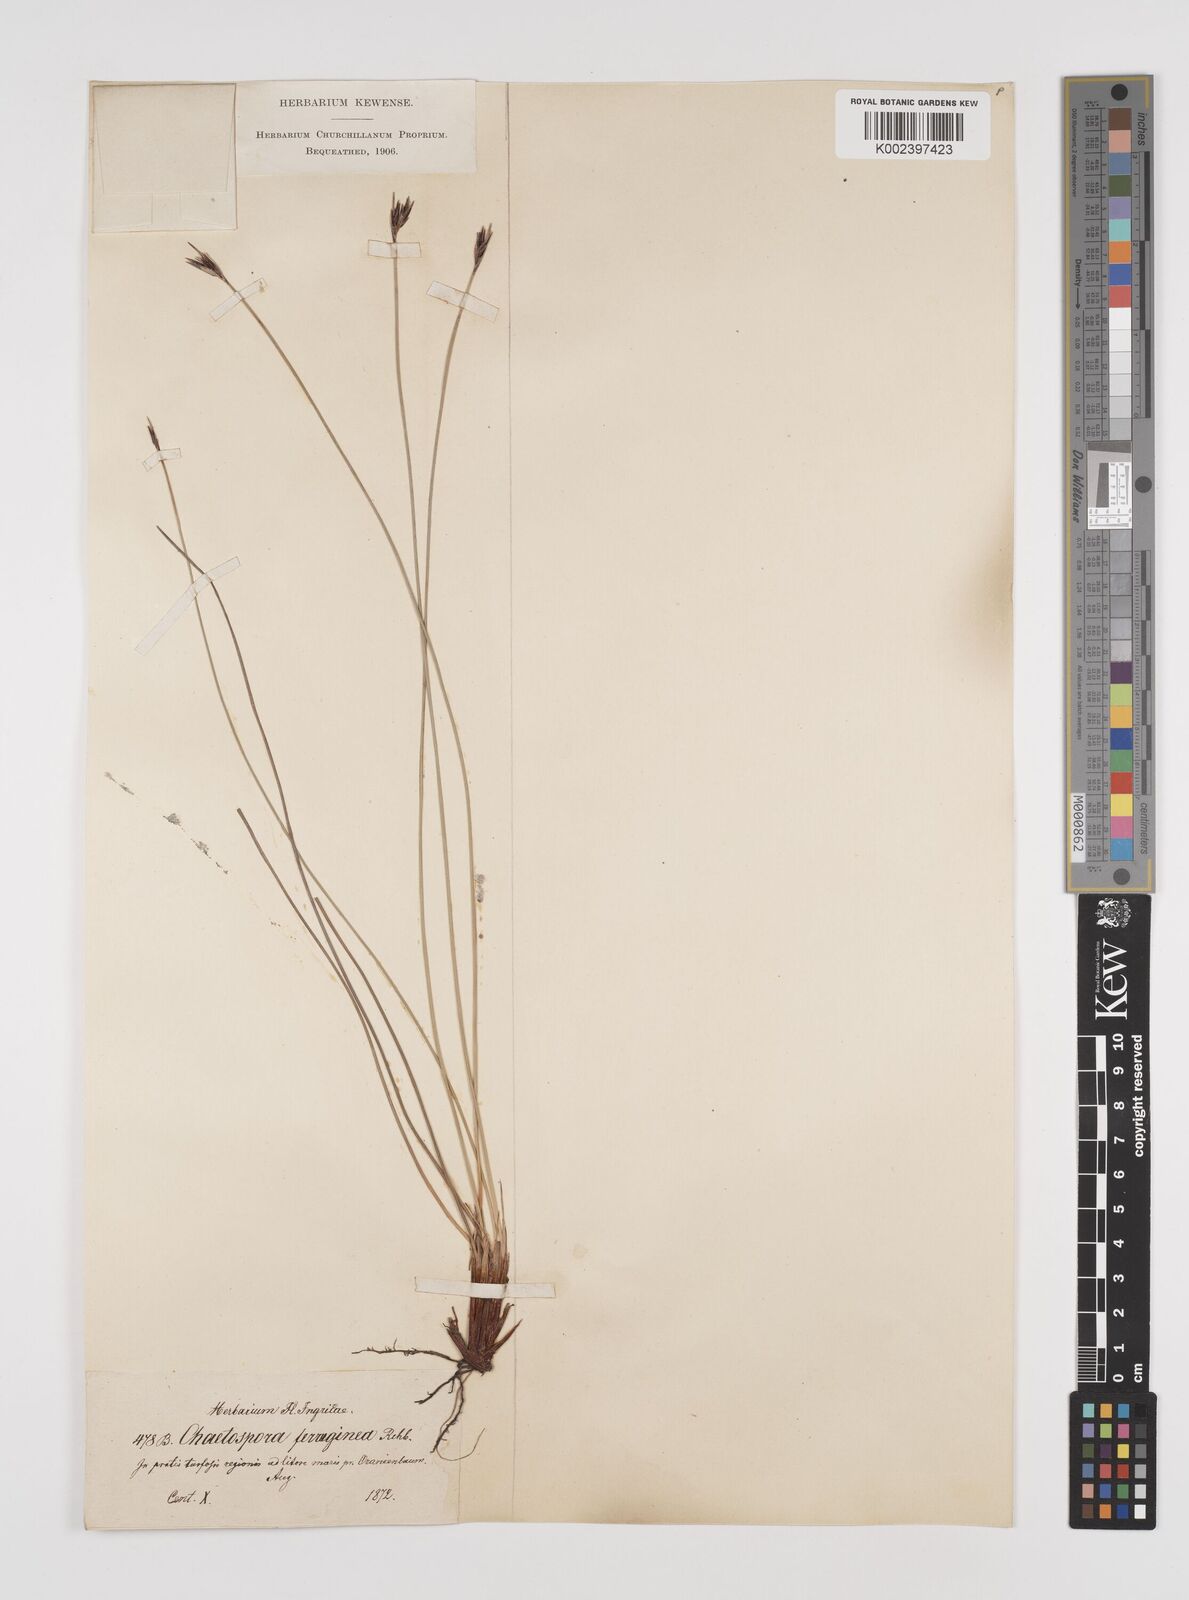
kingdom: Plantae
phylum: Tracheophyta
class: Liliopsida
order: Poales
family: Cyperaceae
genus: Schoenus
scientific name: Schoenus ferrugineus
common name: Brown bog-rush
